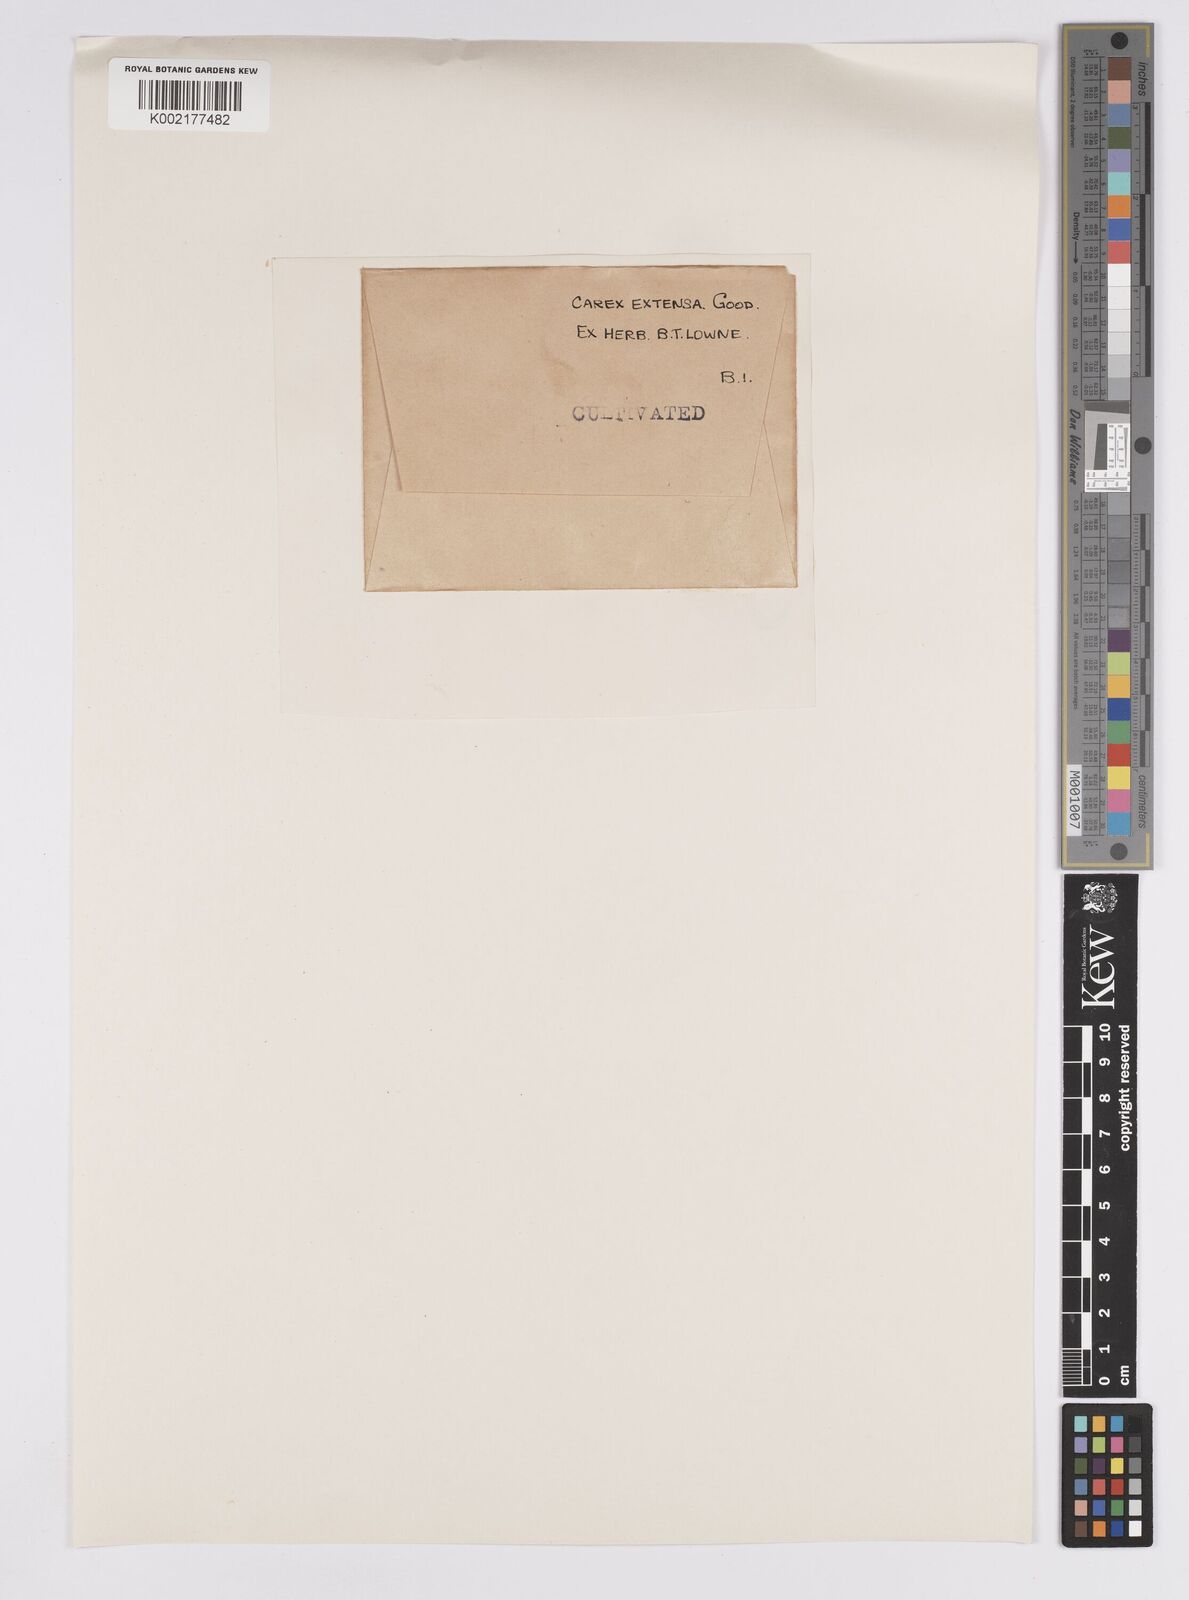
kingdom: Plantae
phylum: Tracheophyta
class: Liliopsida
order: Poales
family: Cyperaceae
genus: Carex
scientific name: Carex extensa
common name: Long-bracted sedge
